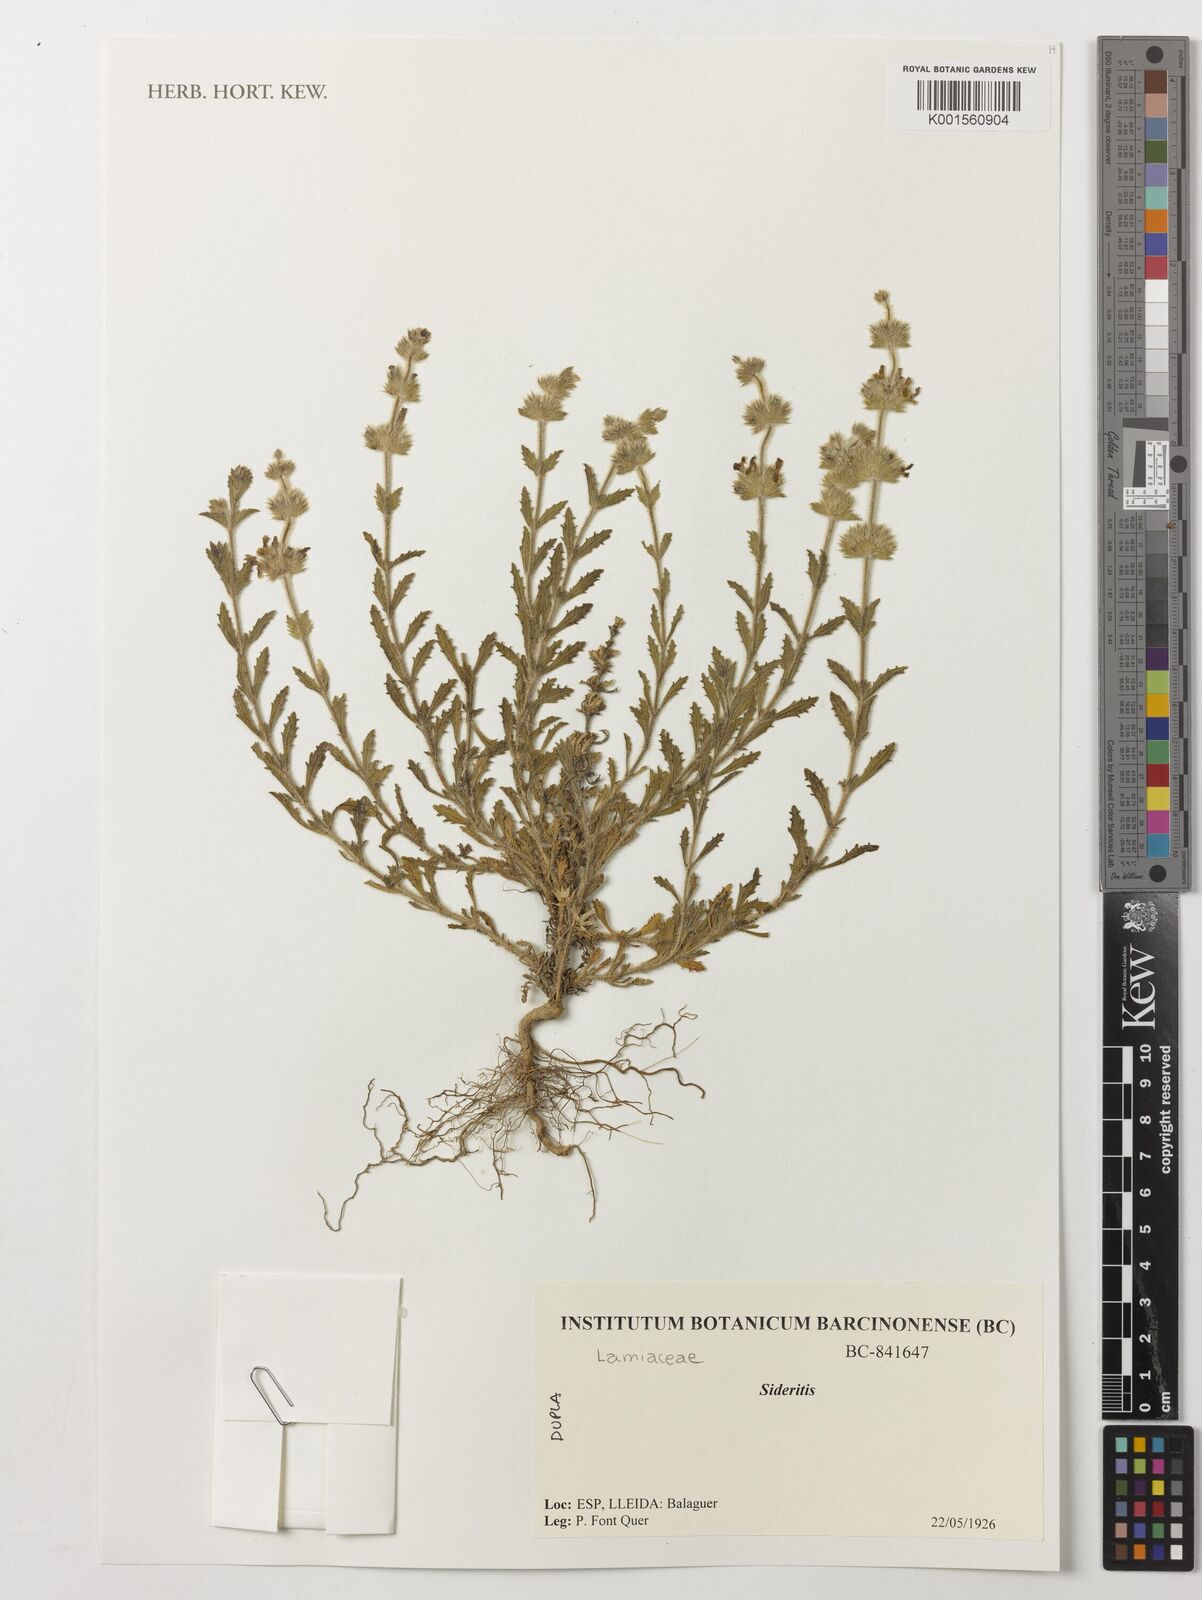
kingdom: Plantae
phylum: Tracheophyta
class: Magnoliopsida
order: Lamiales
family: Lamiaceae
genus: Sideritis
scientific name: Sideritis
